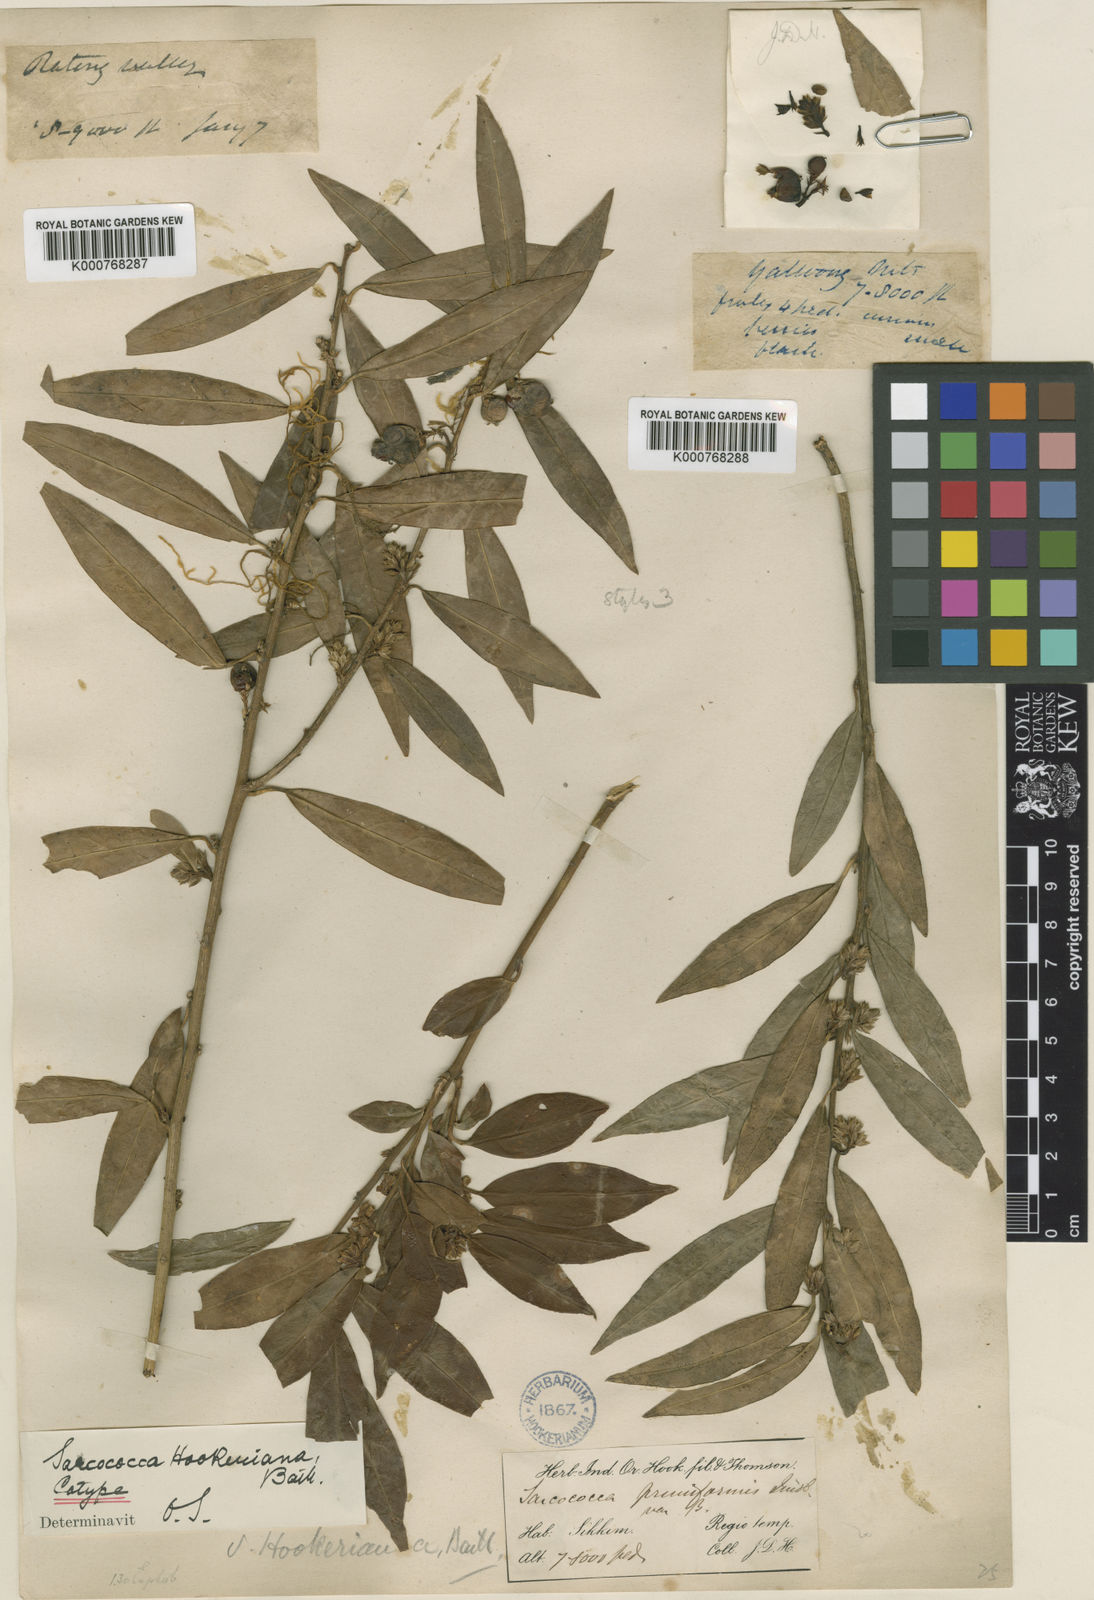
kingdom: Plantae
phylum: Tracheophyta
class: Magnoliopsida
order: Buxales
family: Buxaceae
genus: Sarcococca
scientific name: Sarcococca hookeriana
